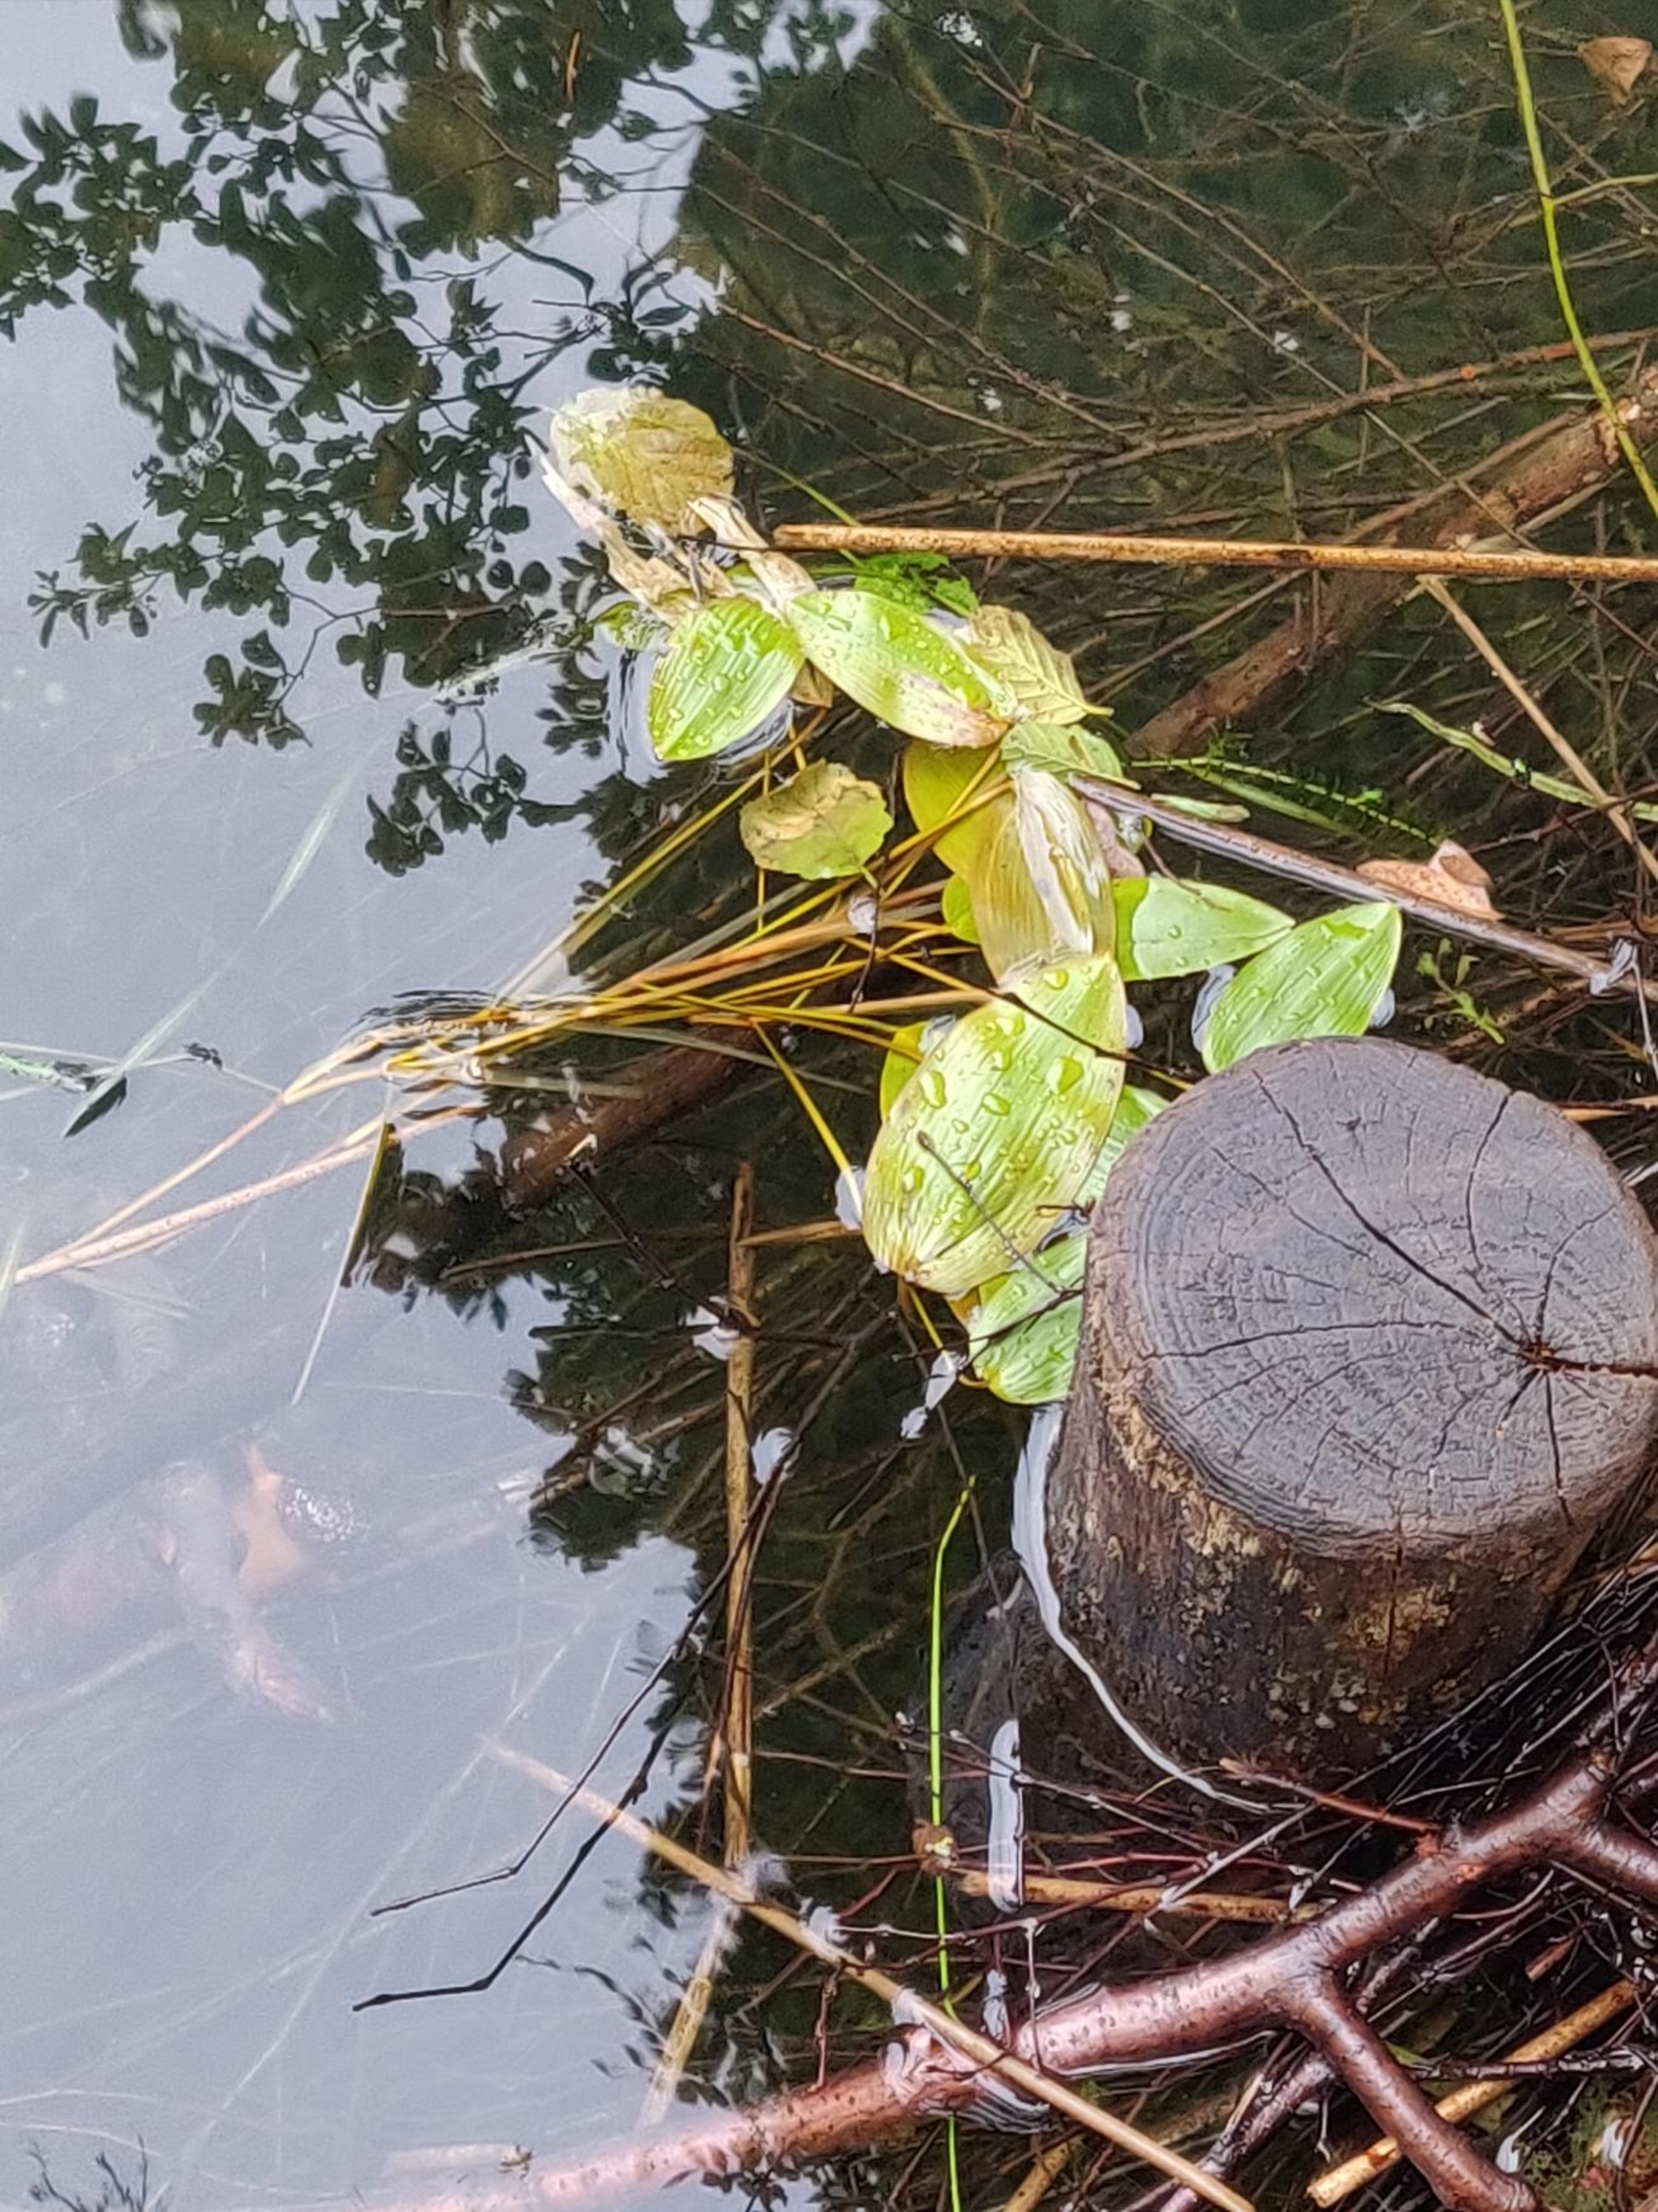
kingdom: Plantae
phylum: Tracheophyta
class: Liliopsida
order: Alismatales
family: Potamogetonaceae
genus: Potamogeton
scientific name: Potamogeton natans
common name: Svømmende vandaks
